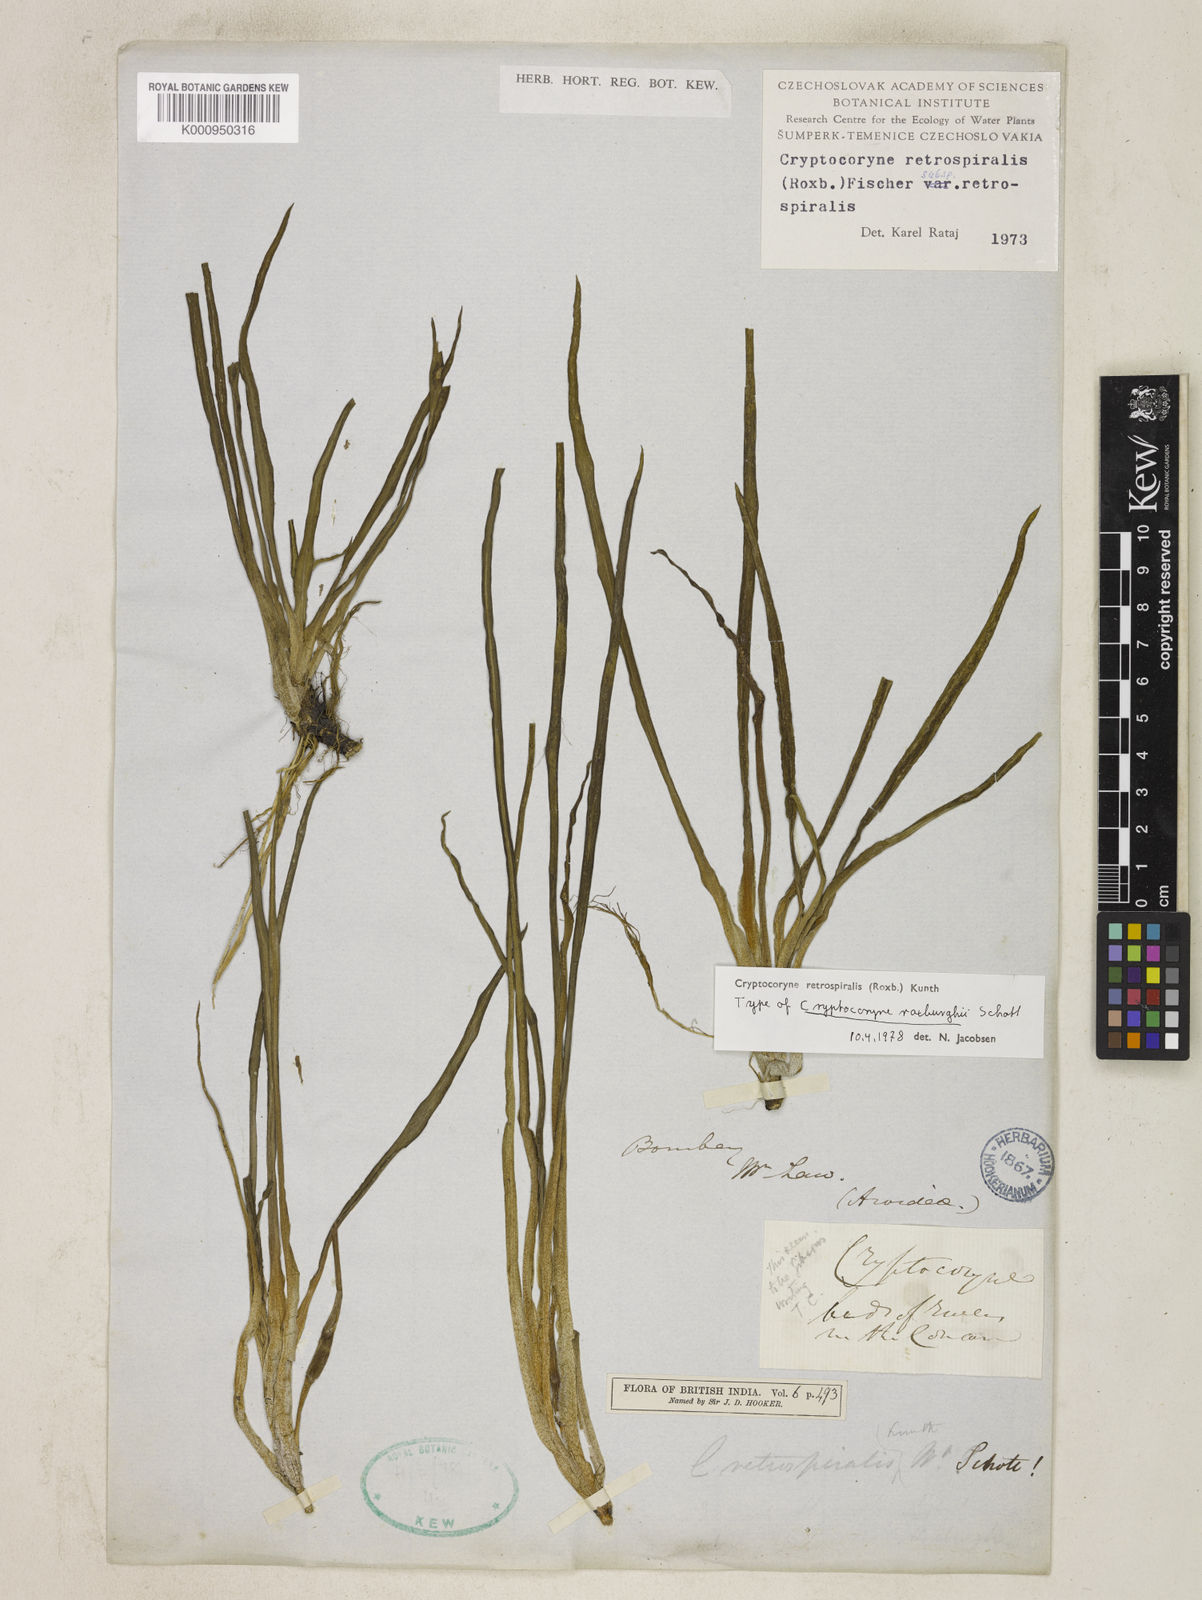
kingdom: Plantae
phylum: Tracheophyta
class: Liliopsida
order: Alismatales
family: Araceae
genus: Cryptocoryne
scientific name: Cryptocoryne retrospiralis
